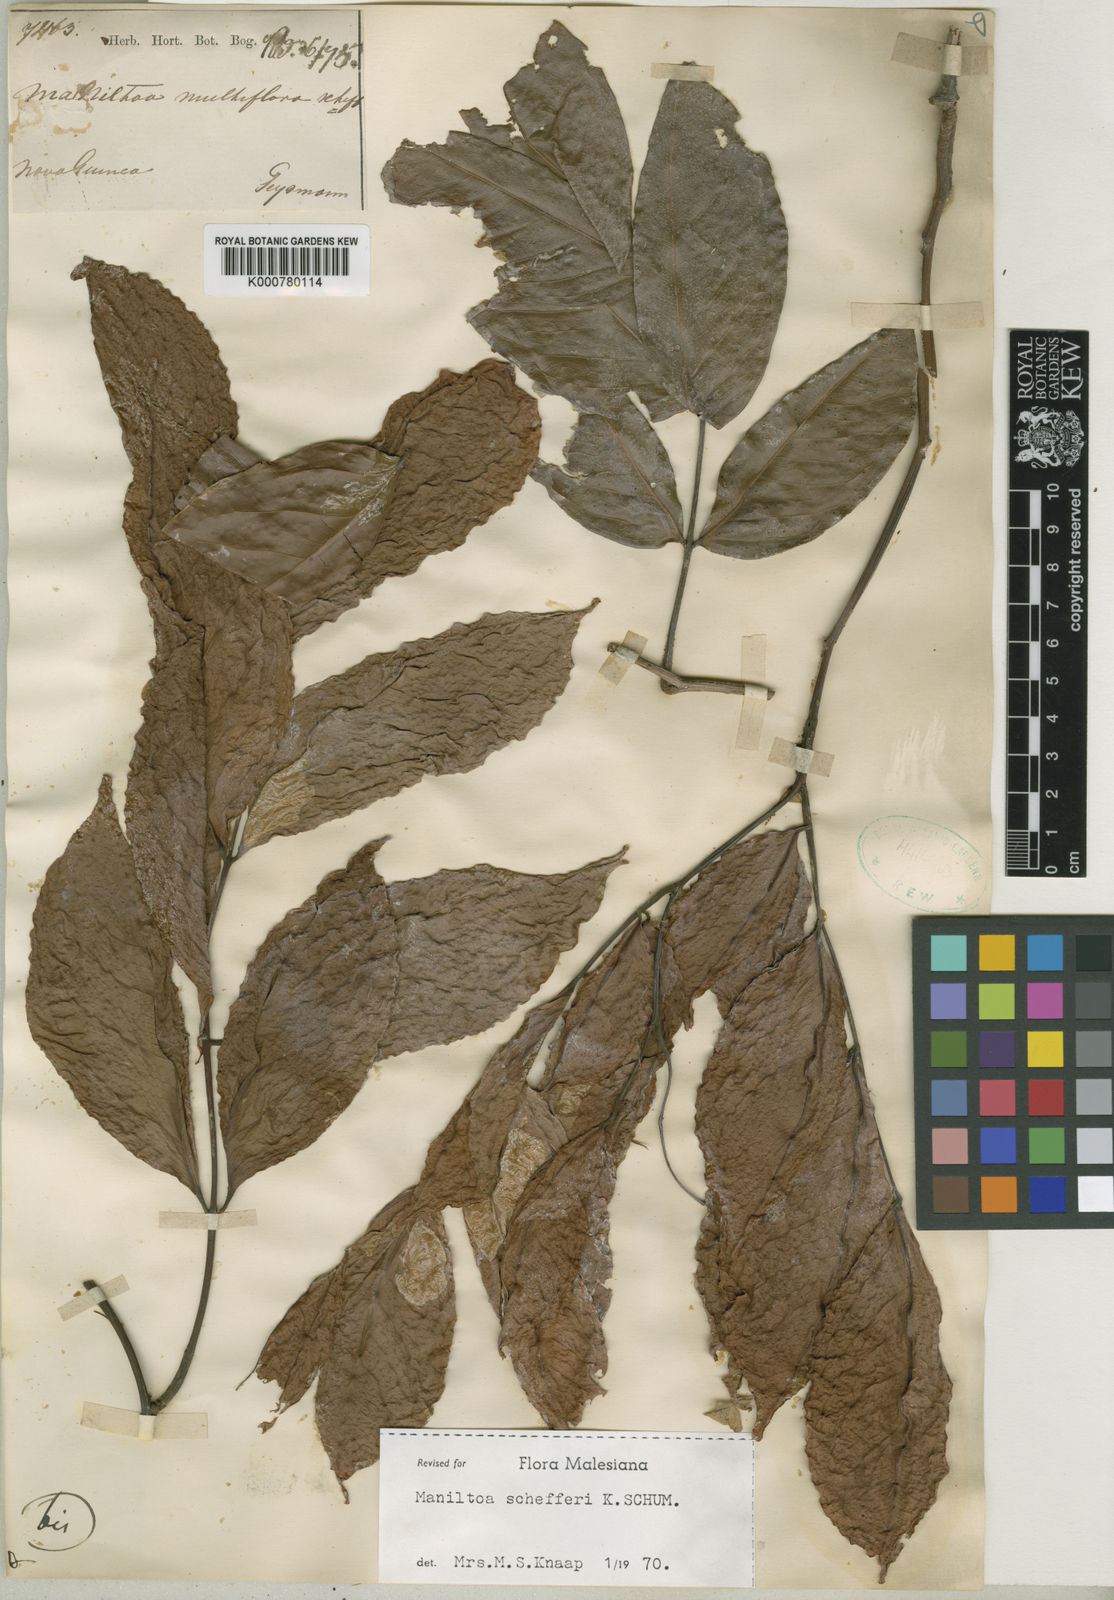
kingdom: Plantae
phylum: Tracheophyta
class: Magnoliopsida
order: Fabales
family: Fabaceae
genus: Cynometra
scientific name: Cynometra schefferi
